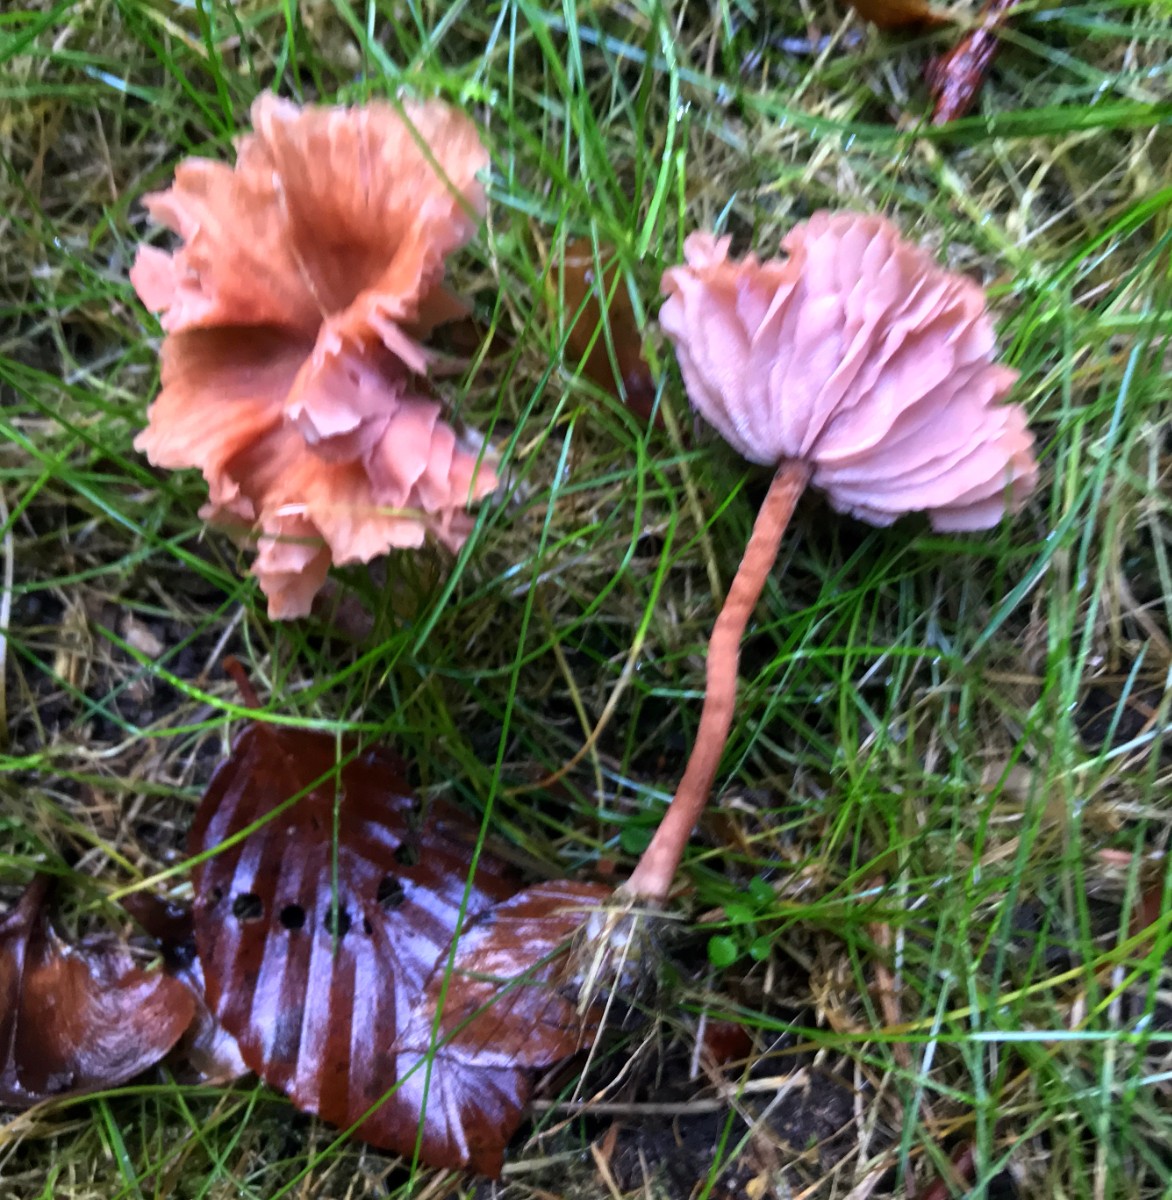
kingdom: Fungi
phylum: Basidiomycota
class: Agaricomycetes
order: Agaricales
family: Hydnangiaceae
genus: Laccaria
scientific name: Laccaria laccata
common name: rød ametysthat
